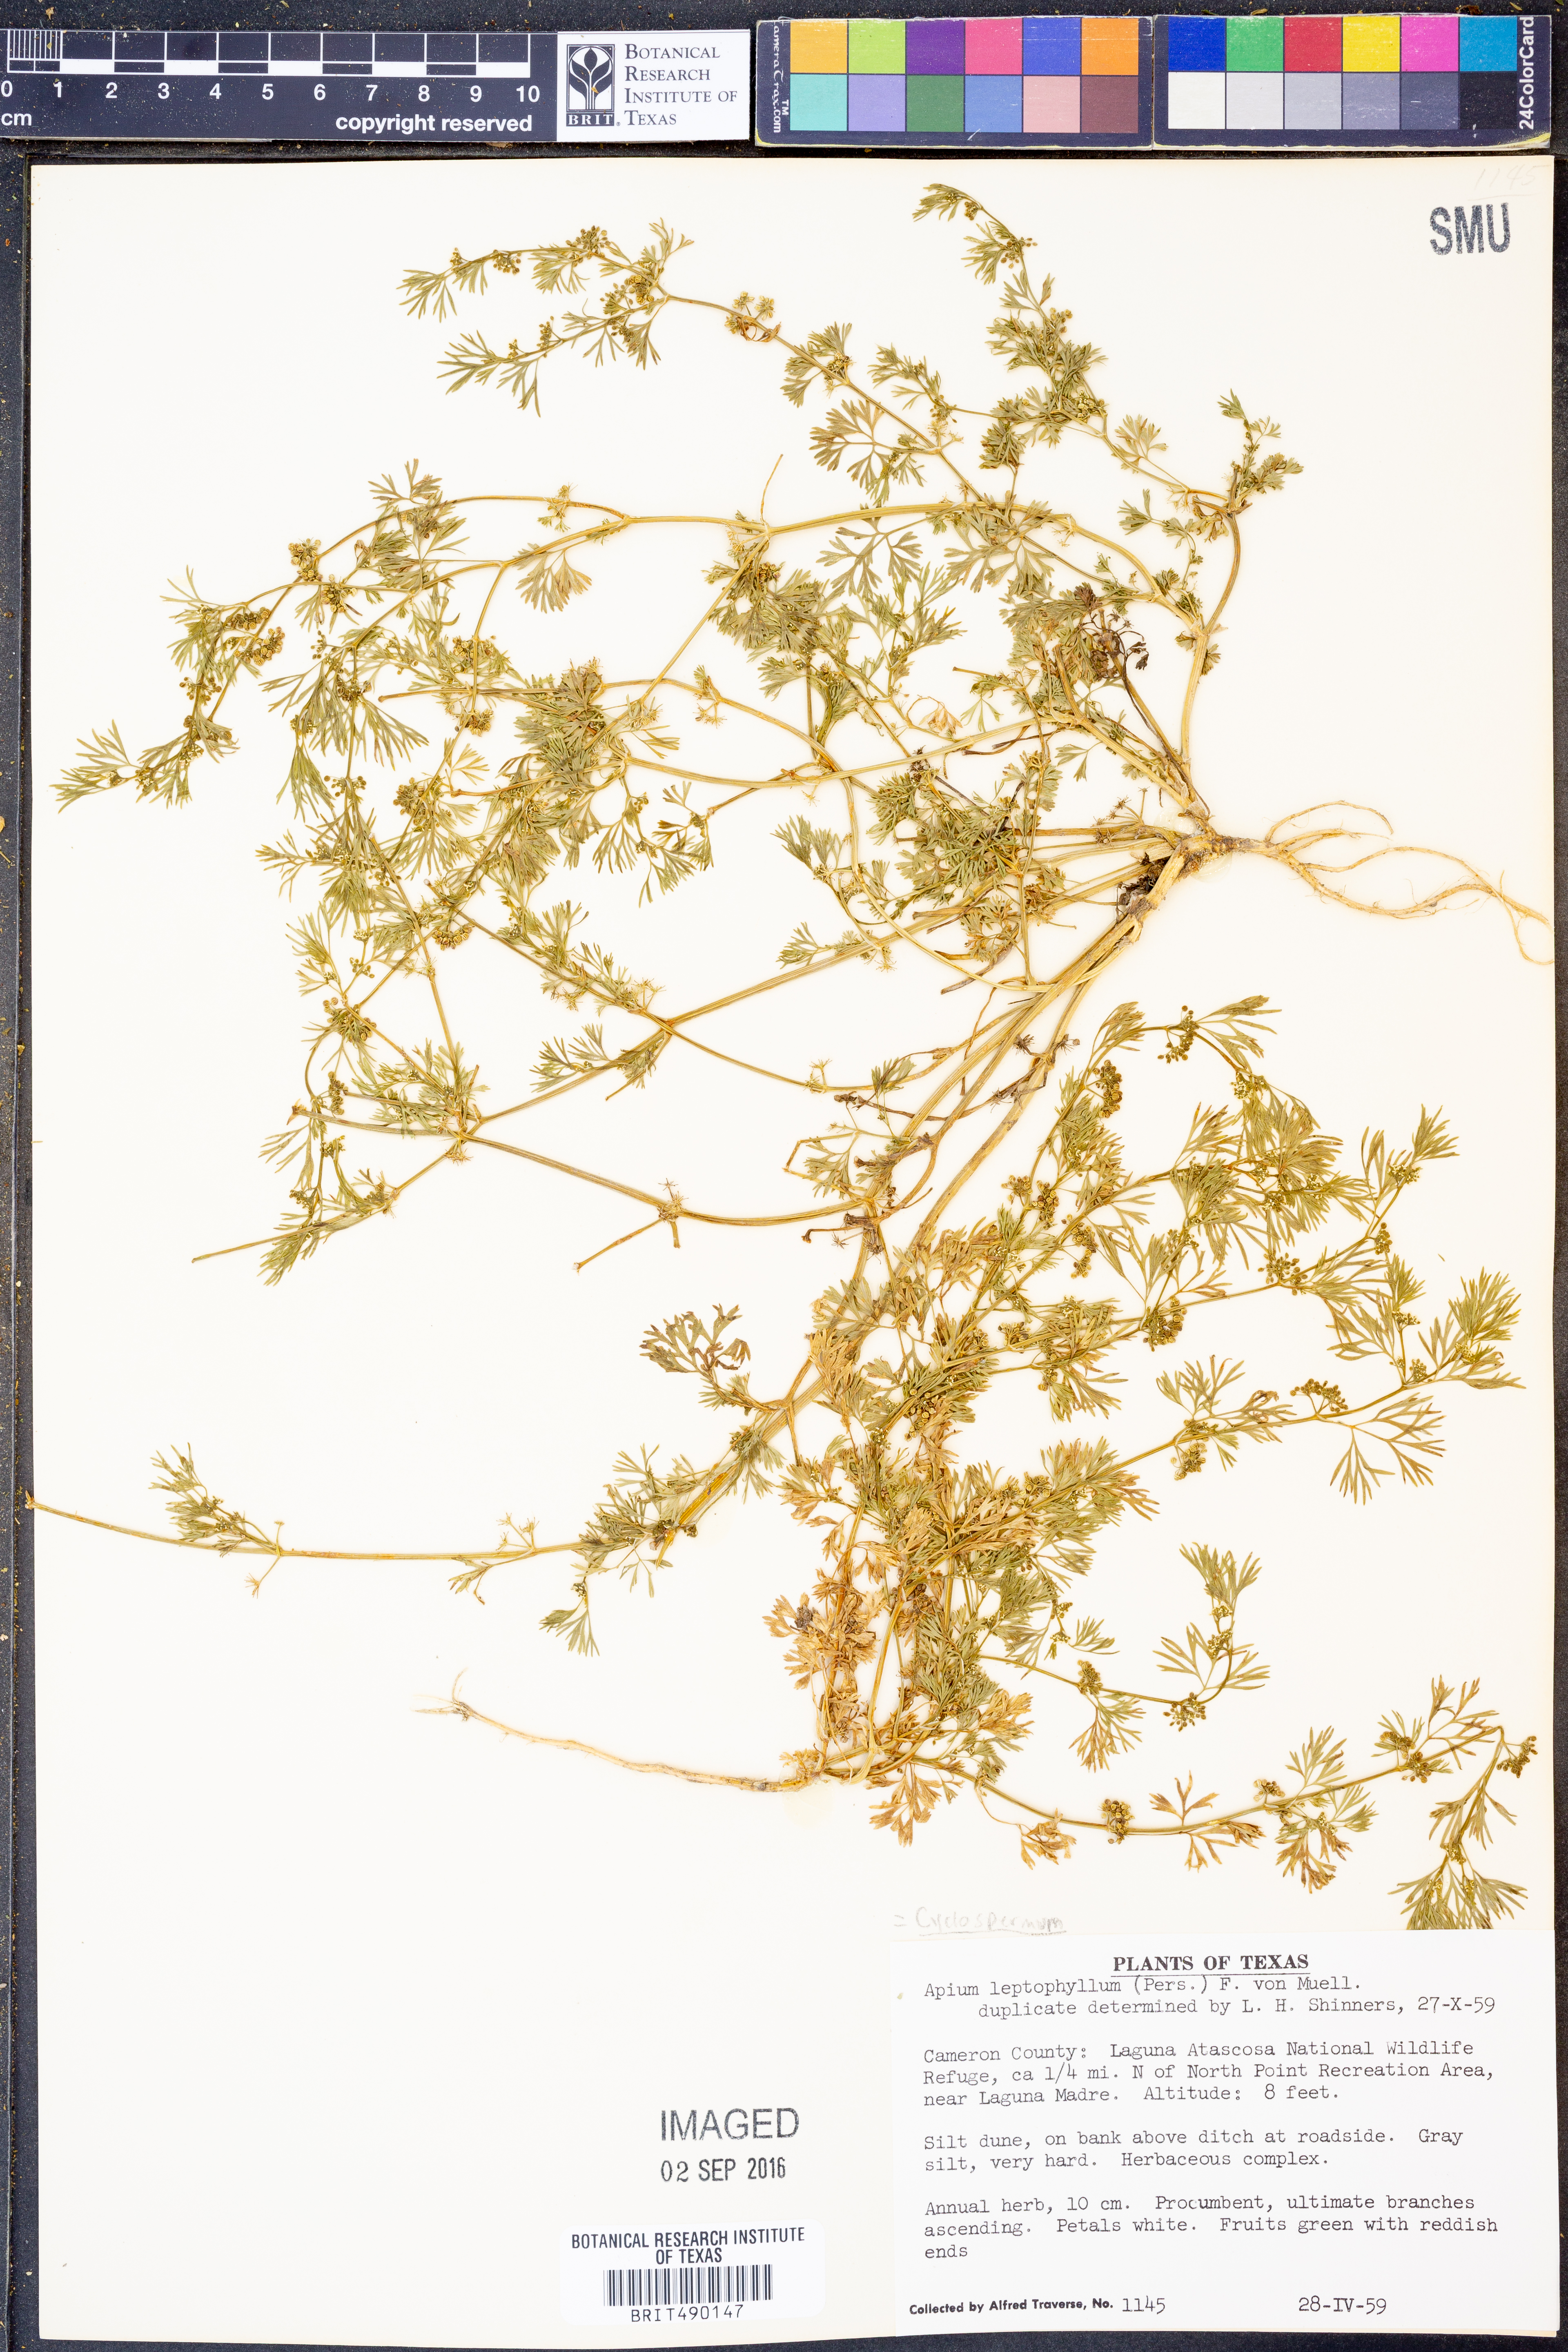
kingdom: Plantae
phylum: Tracheophyta
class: Magnoliopsida
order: Apiales
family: Apiaceae
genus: Cyclospermum
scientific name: Cyclospermum leptophyllum
